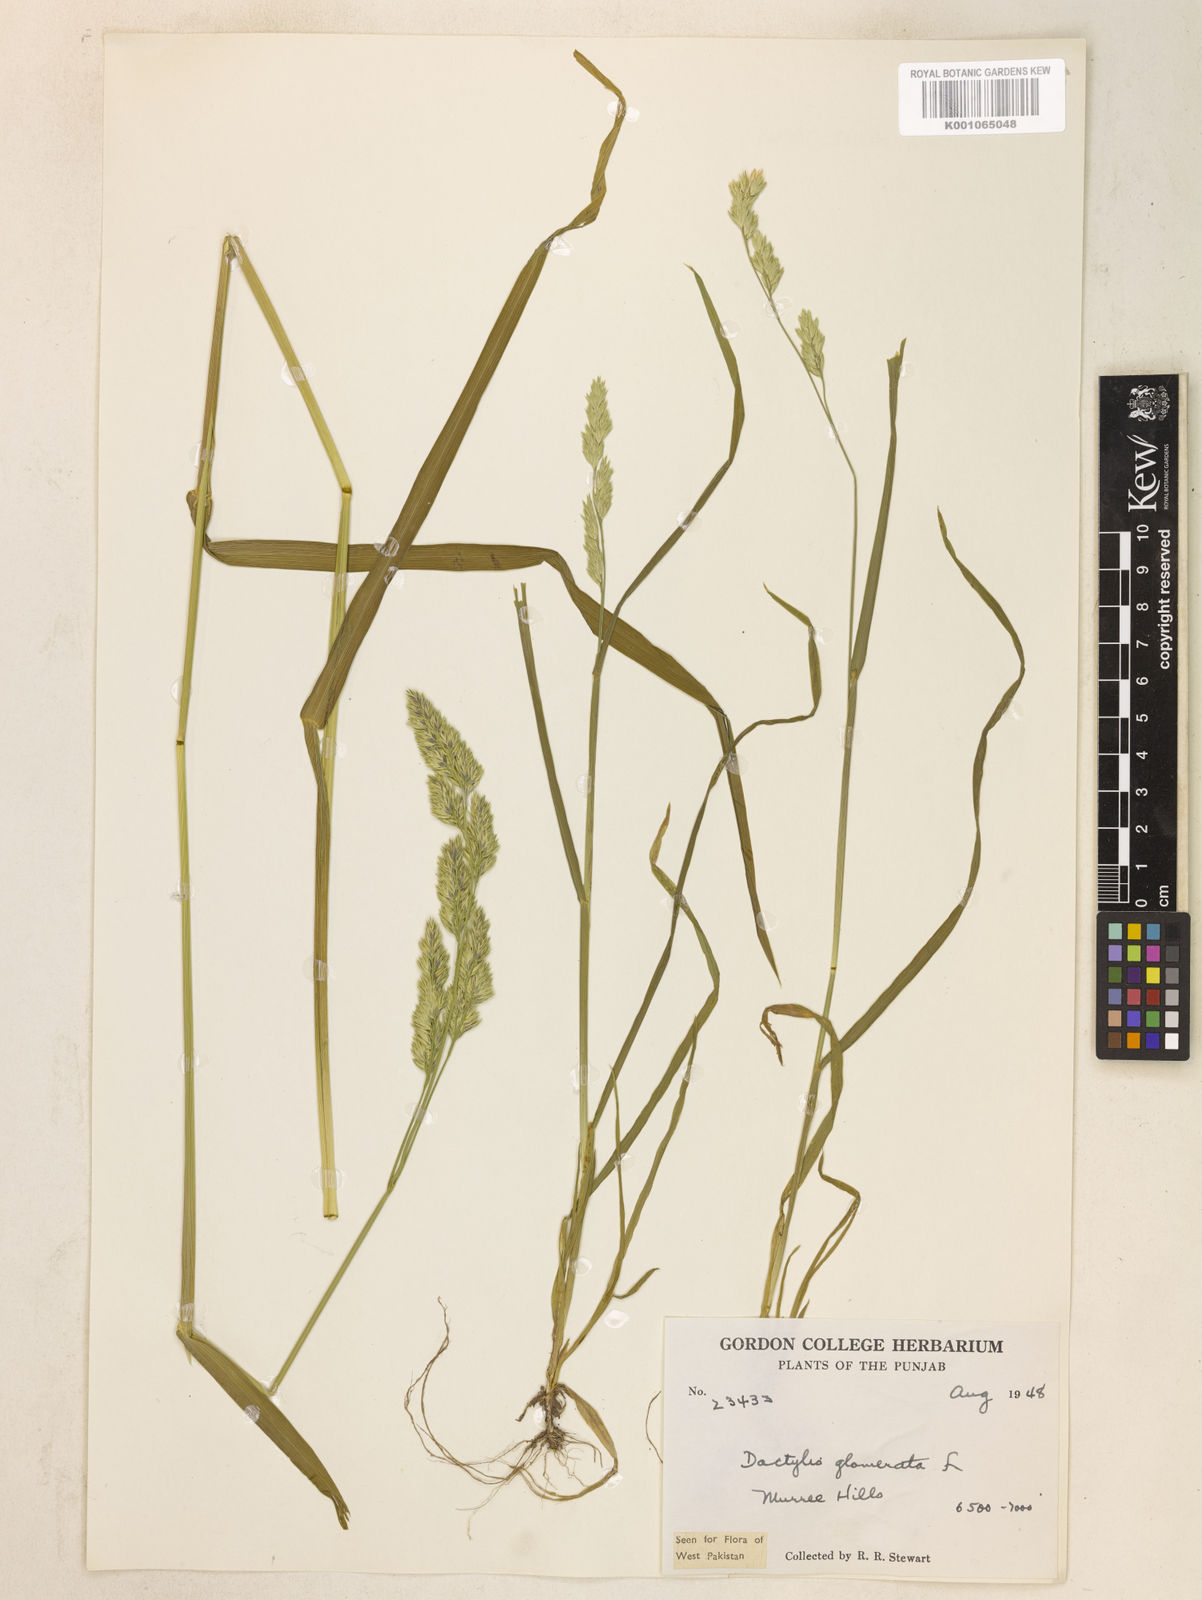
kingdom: Plantae
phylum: Tracheophyta
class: Liliopsida
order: Poales
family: Poaceae
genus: Dactylis
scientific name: Dactylis glomerata
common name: Orchardgrass
